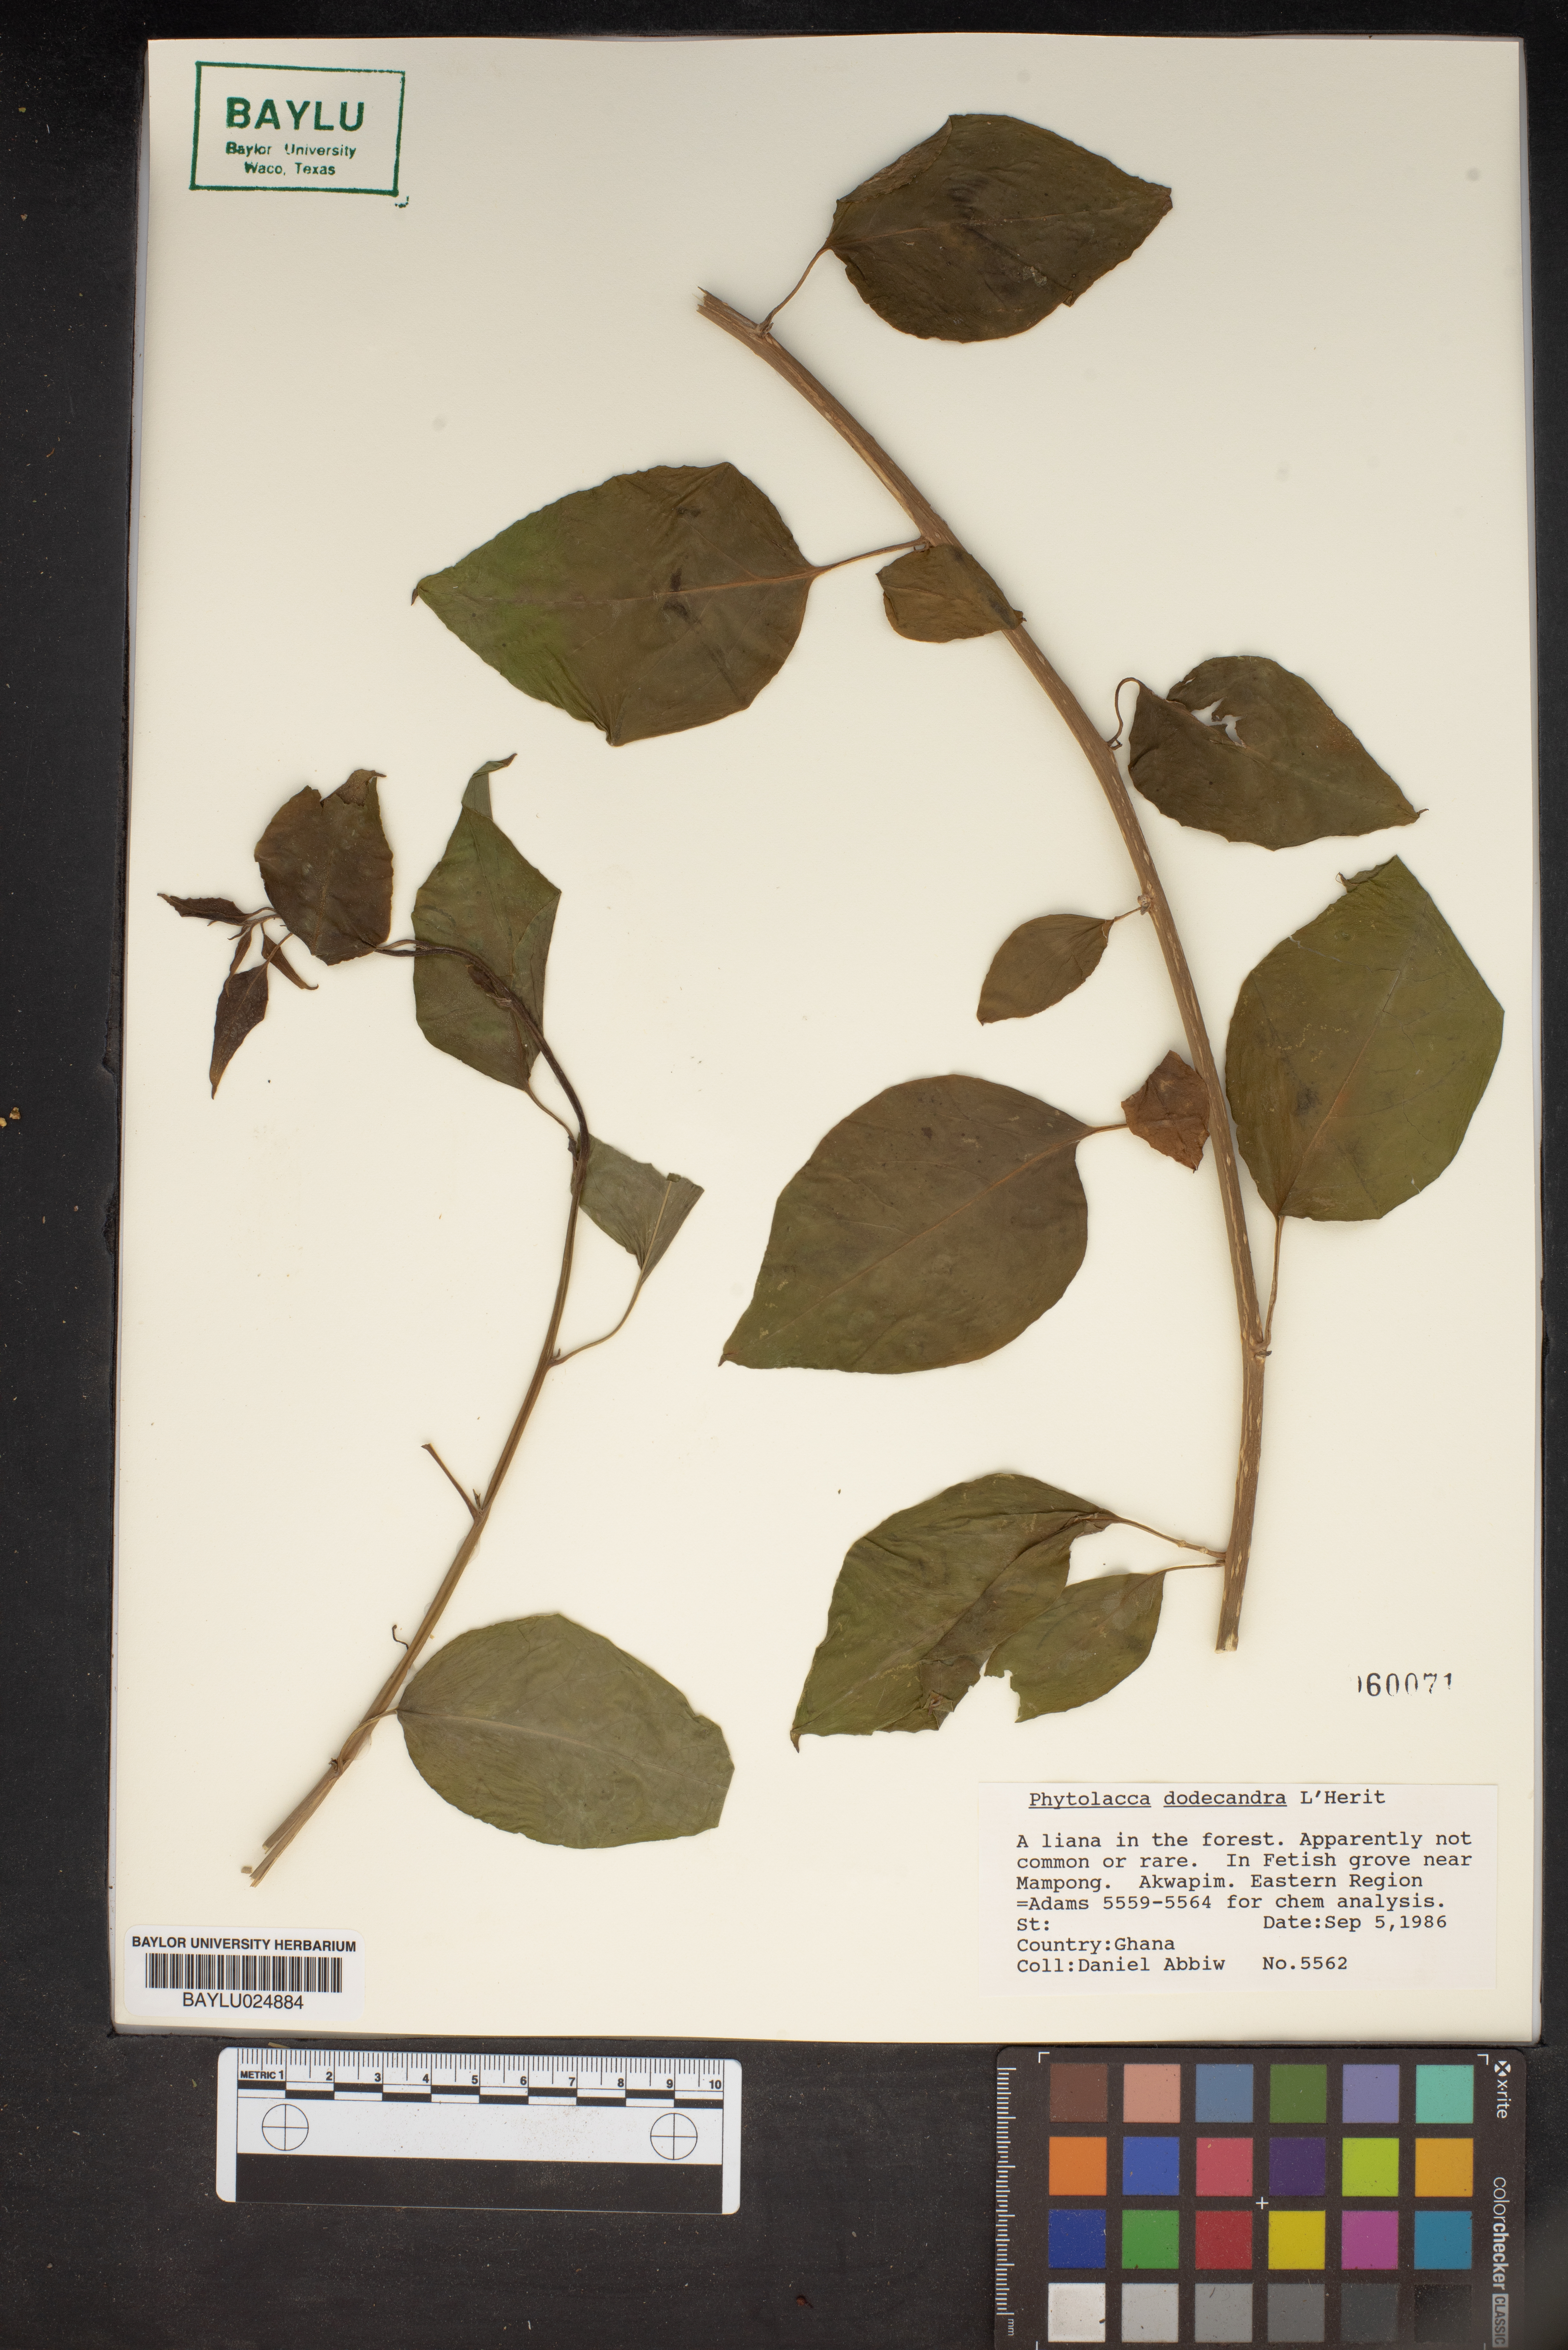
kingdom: Plantae
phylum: Tracheophyta
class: Magnoliopsida
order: Caryophyllales
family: Phytolaccaceae
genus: Phytolacca
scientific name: Phytolacca dodecandra
